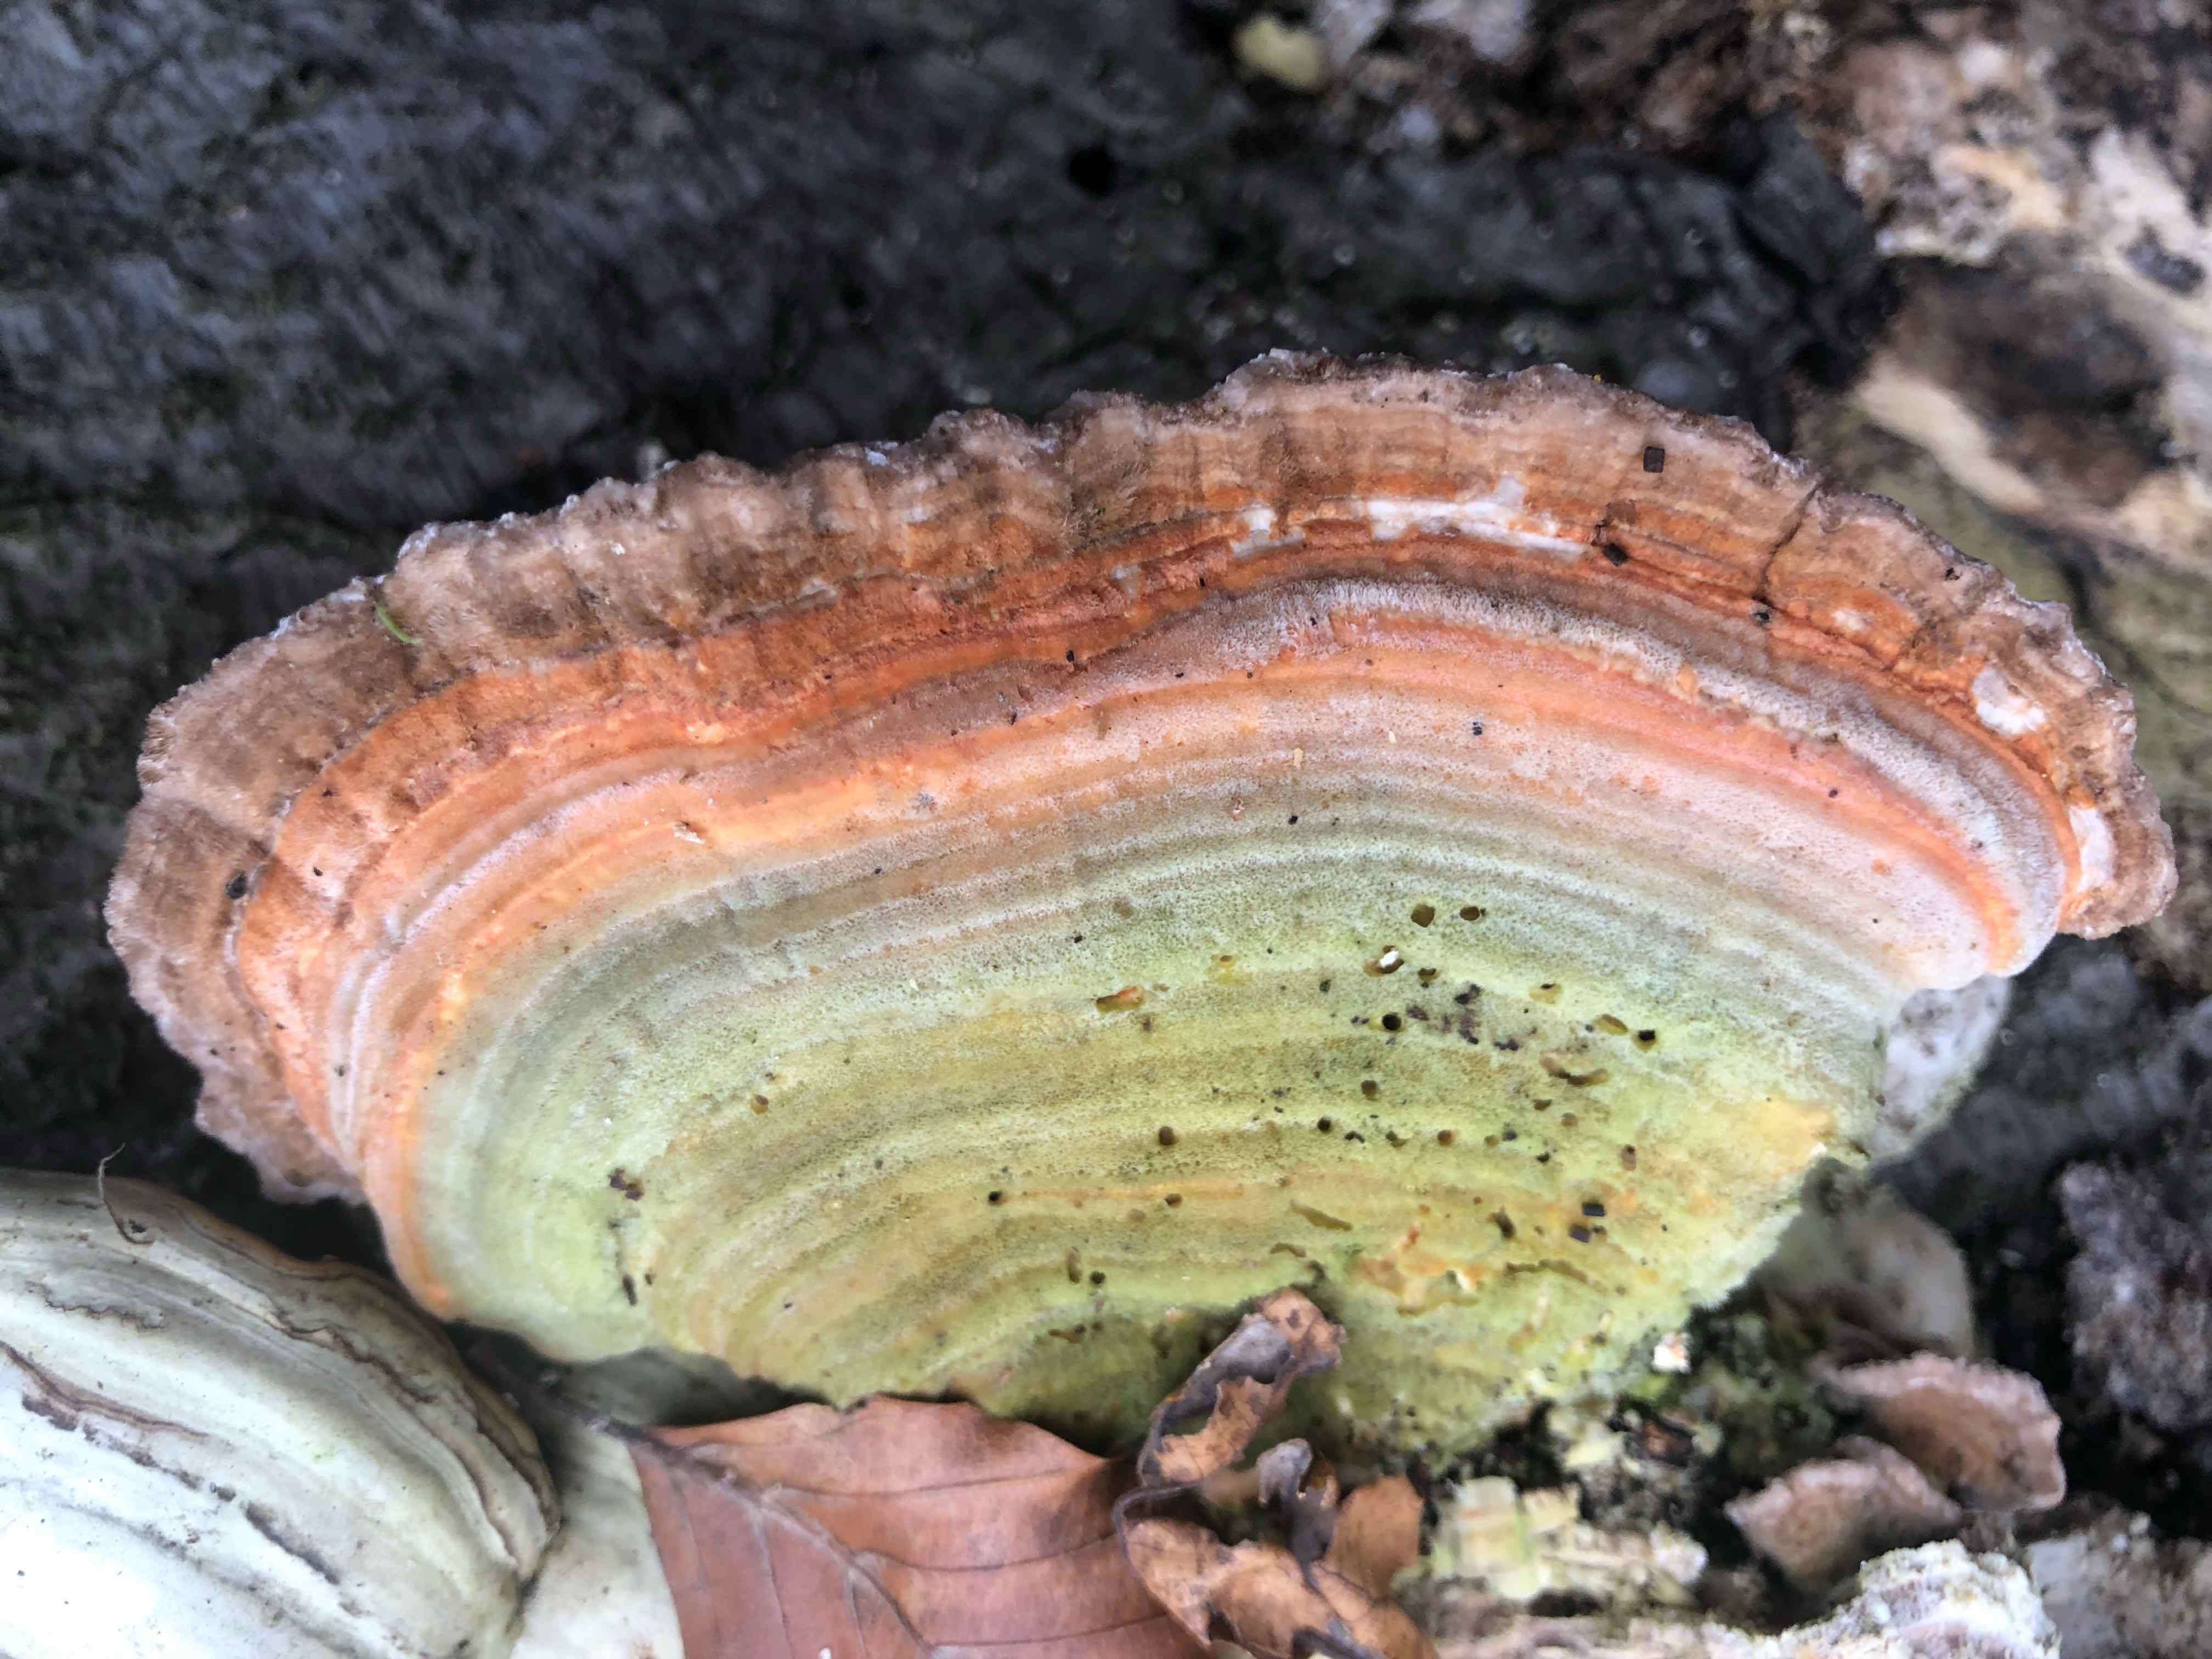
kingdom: Fungi
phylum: Basidiomycota
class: Agaricomycetes
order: Polyporales
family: Polyporaceae
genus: Lenzites
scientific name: Lenzites betulinus
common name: birke-læderporesvamp
